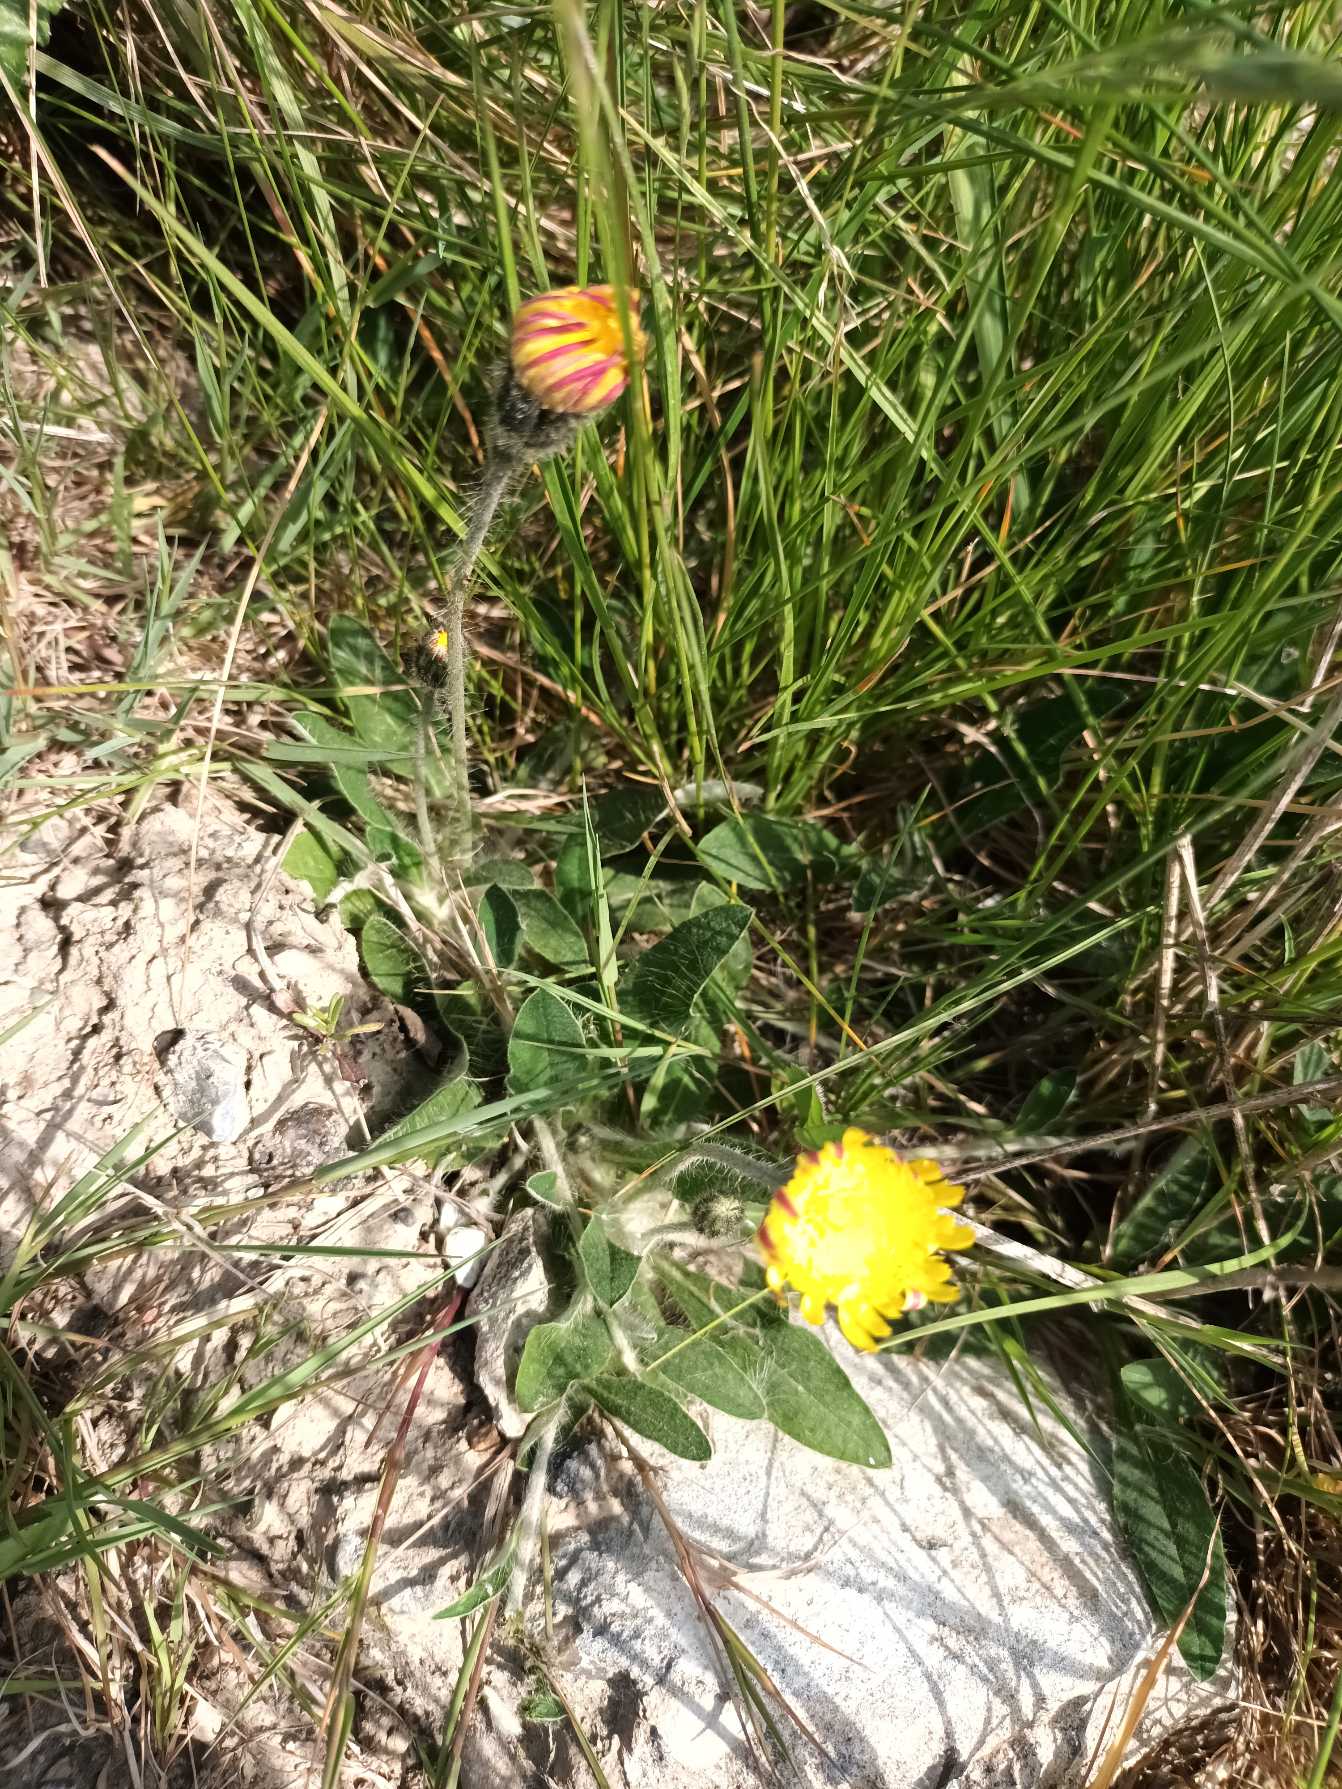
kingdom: Plantae
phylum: Tracheophyta
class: Magnoliopsida
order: Asterales
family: Asteraceae
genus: Pilosella
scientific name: Pilosella officinarum
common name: Håret høgeurt
